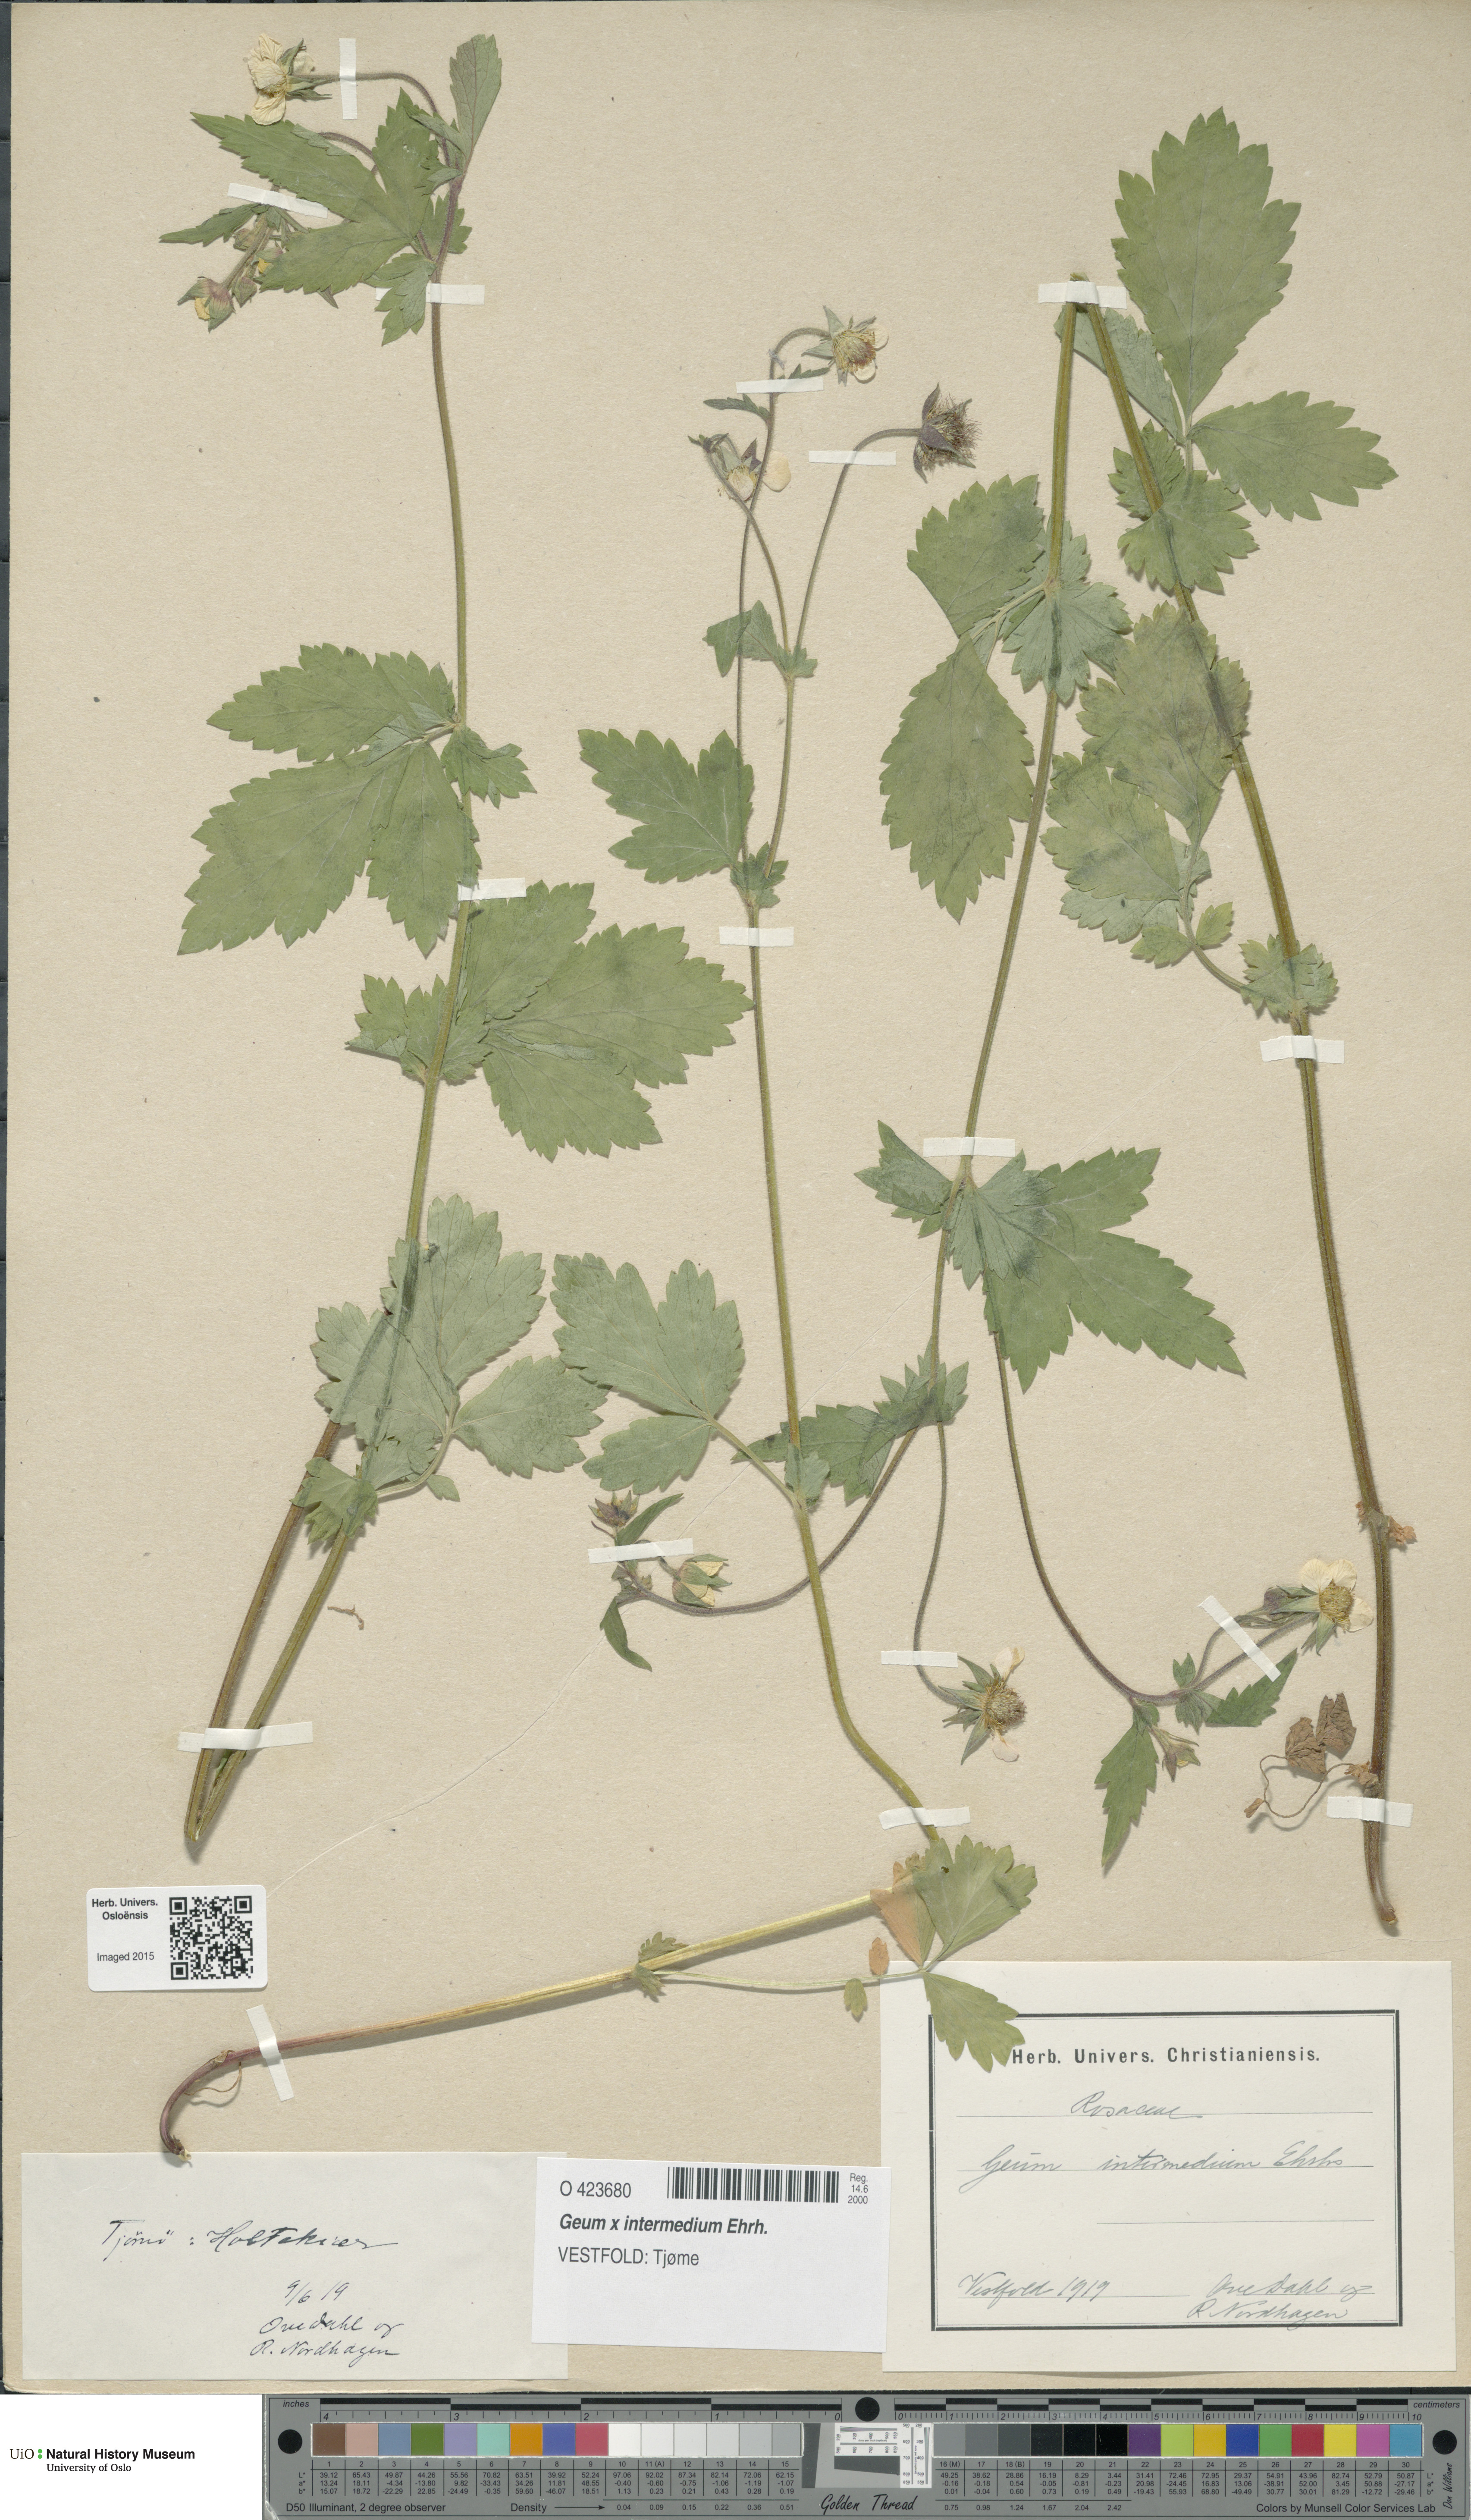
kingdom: Plantae
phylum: Tracheophyta
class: Magnoliopsida
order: Rosales
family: Rosaceae
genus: Geum
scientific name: Geum intermedium
